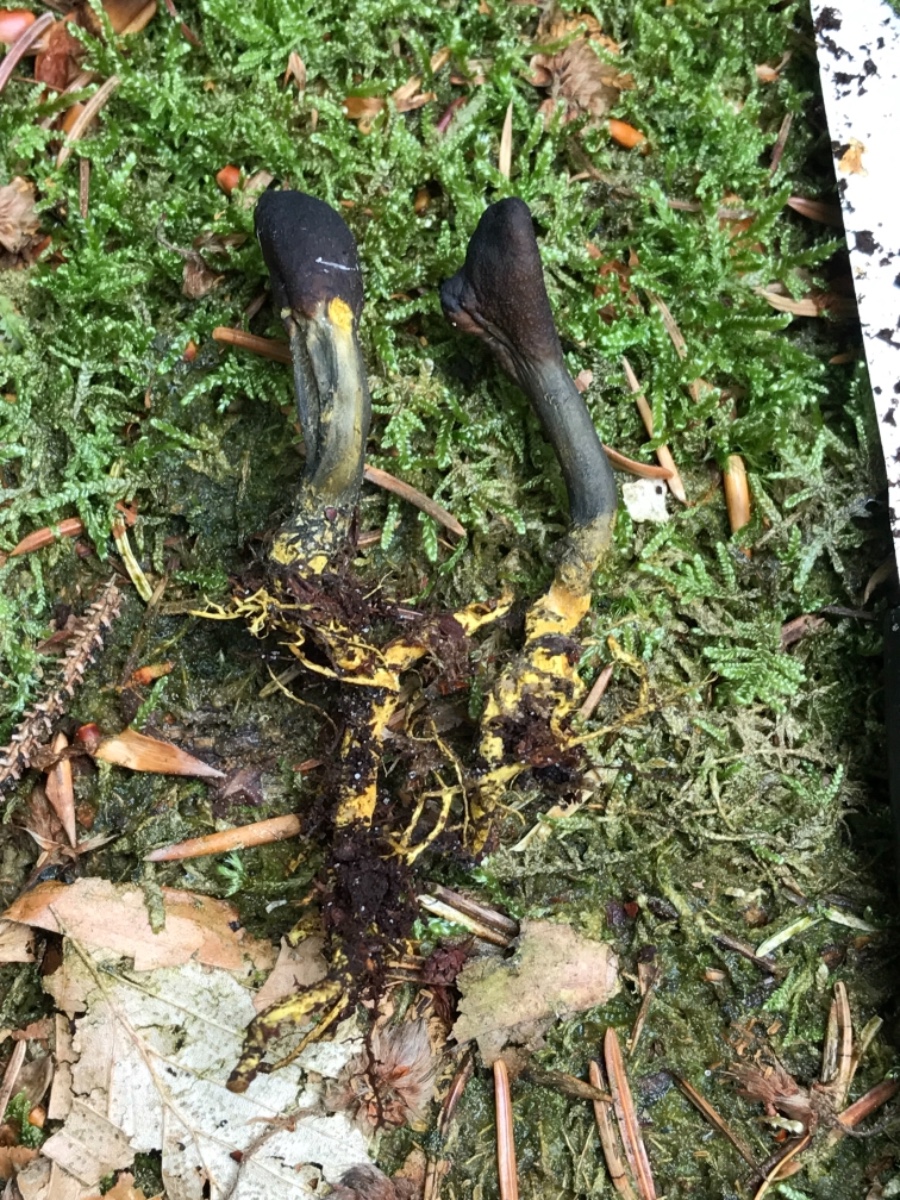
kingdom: Fungi
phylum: Ascomycota
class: Sordariomycetes
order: Hypocreales
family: Ophiocordycipitaceae
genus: Tolypocladium
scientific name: Tolypocladium ophioglossoides
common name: slank snyltekølle
